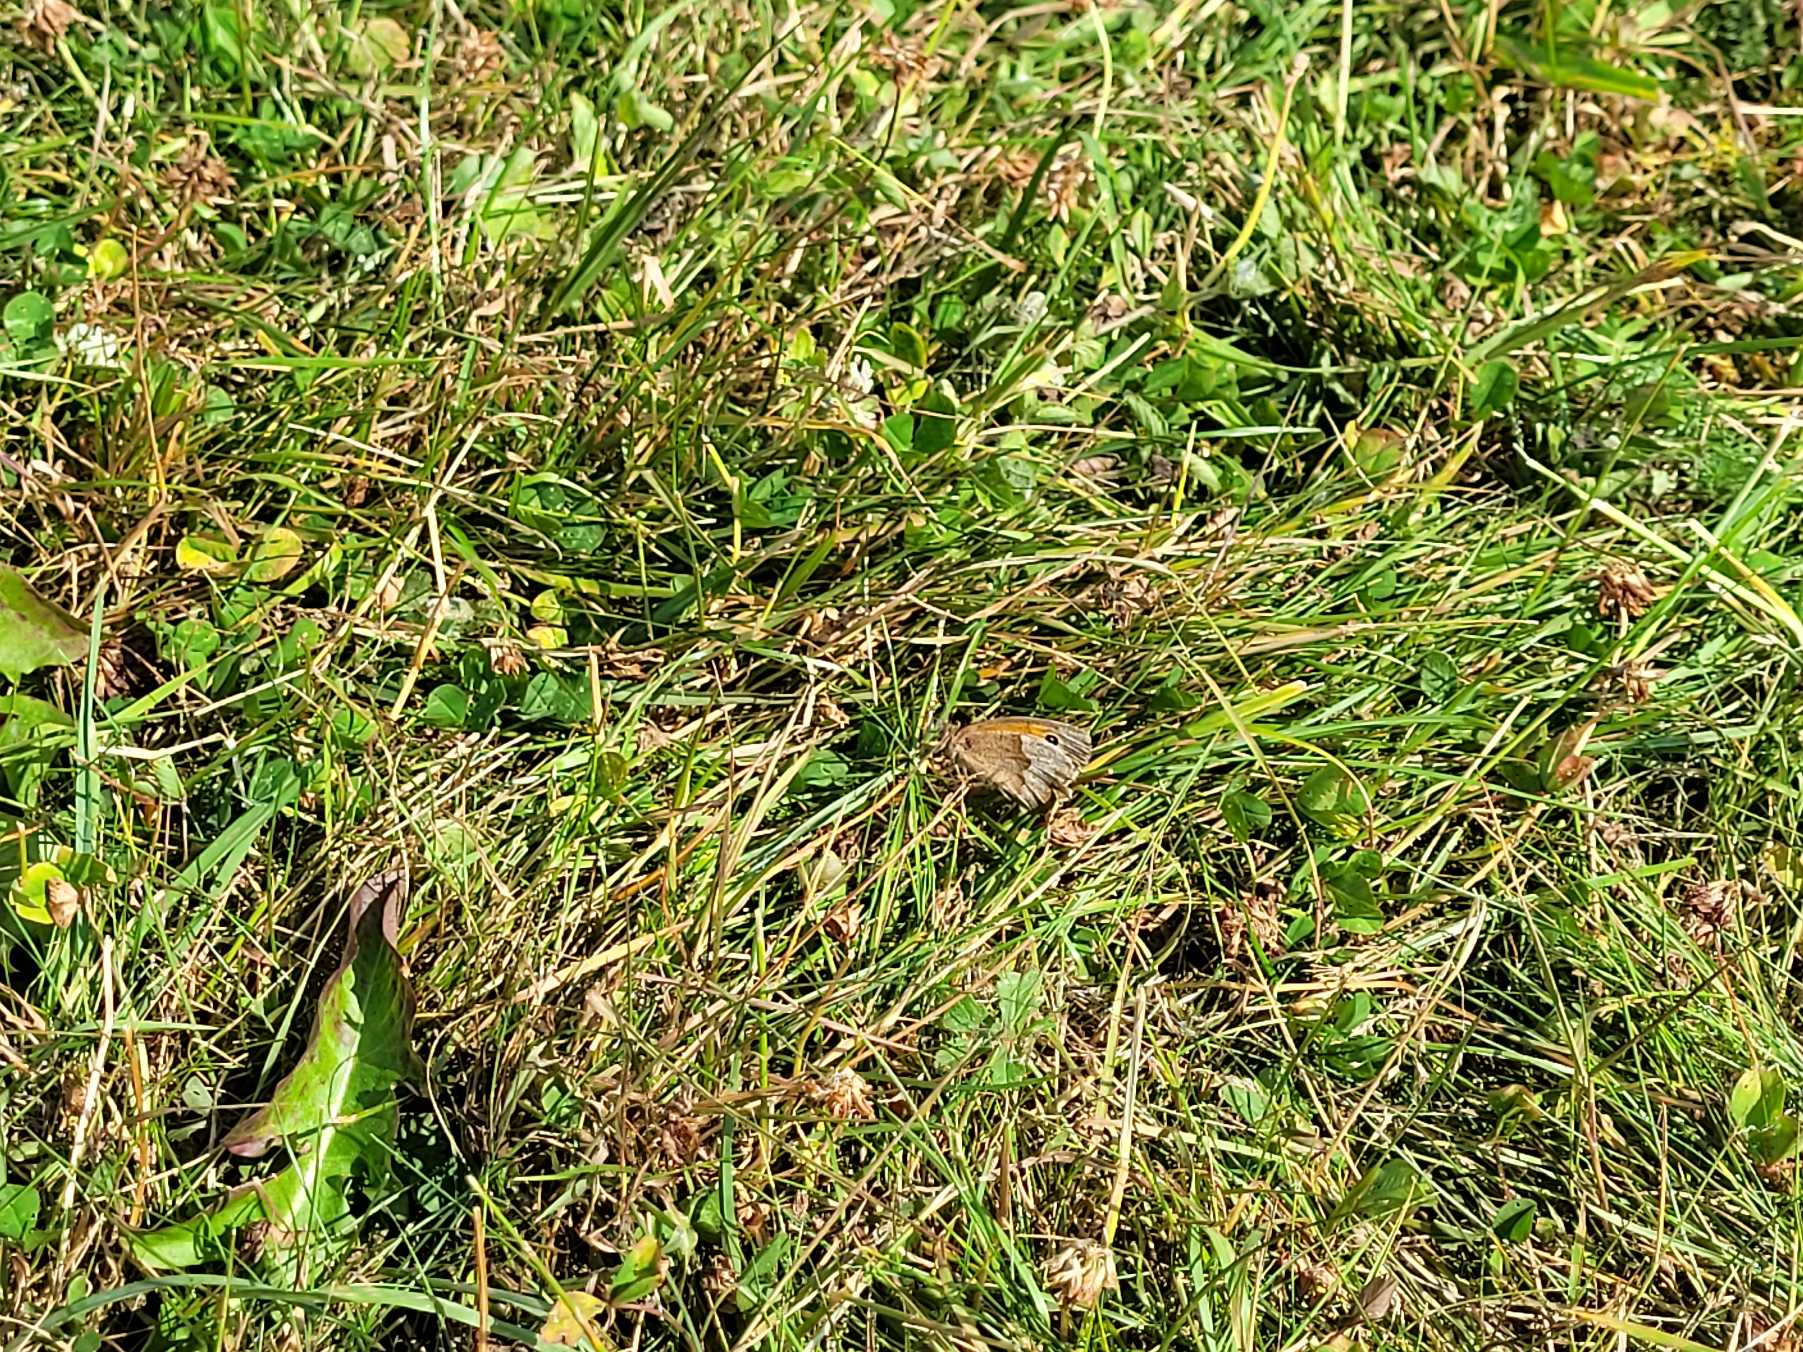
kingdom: Animalia
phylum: Arthropoda
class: Insecta
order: Lepidoptera
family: Nymphalidae
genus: Maniola
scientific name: Maniola jurtina
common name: Græsrandøje
